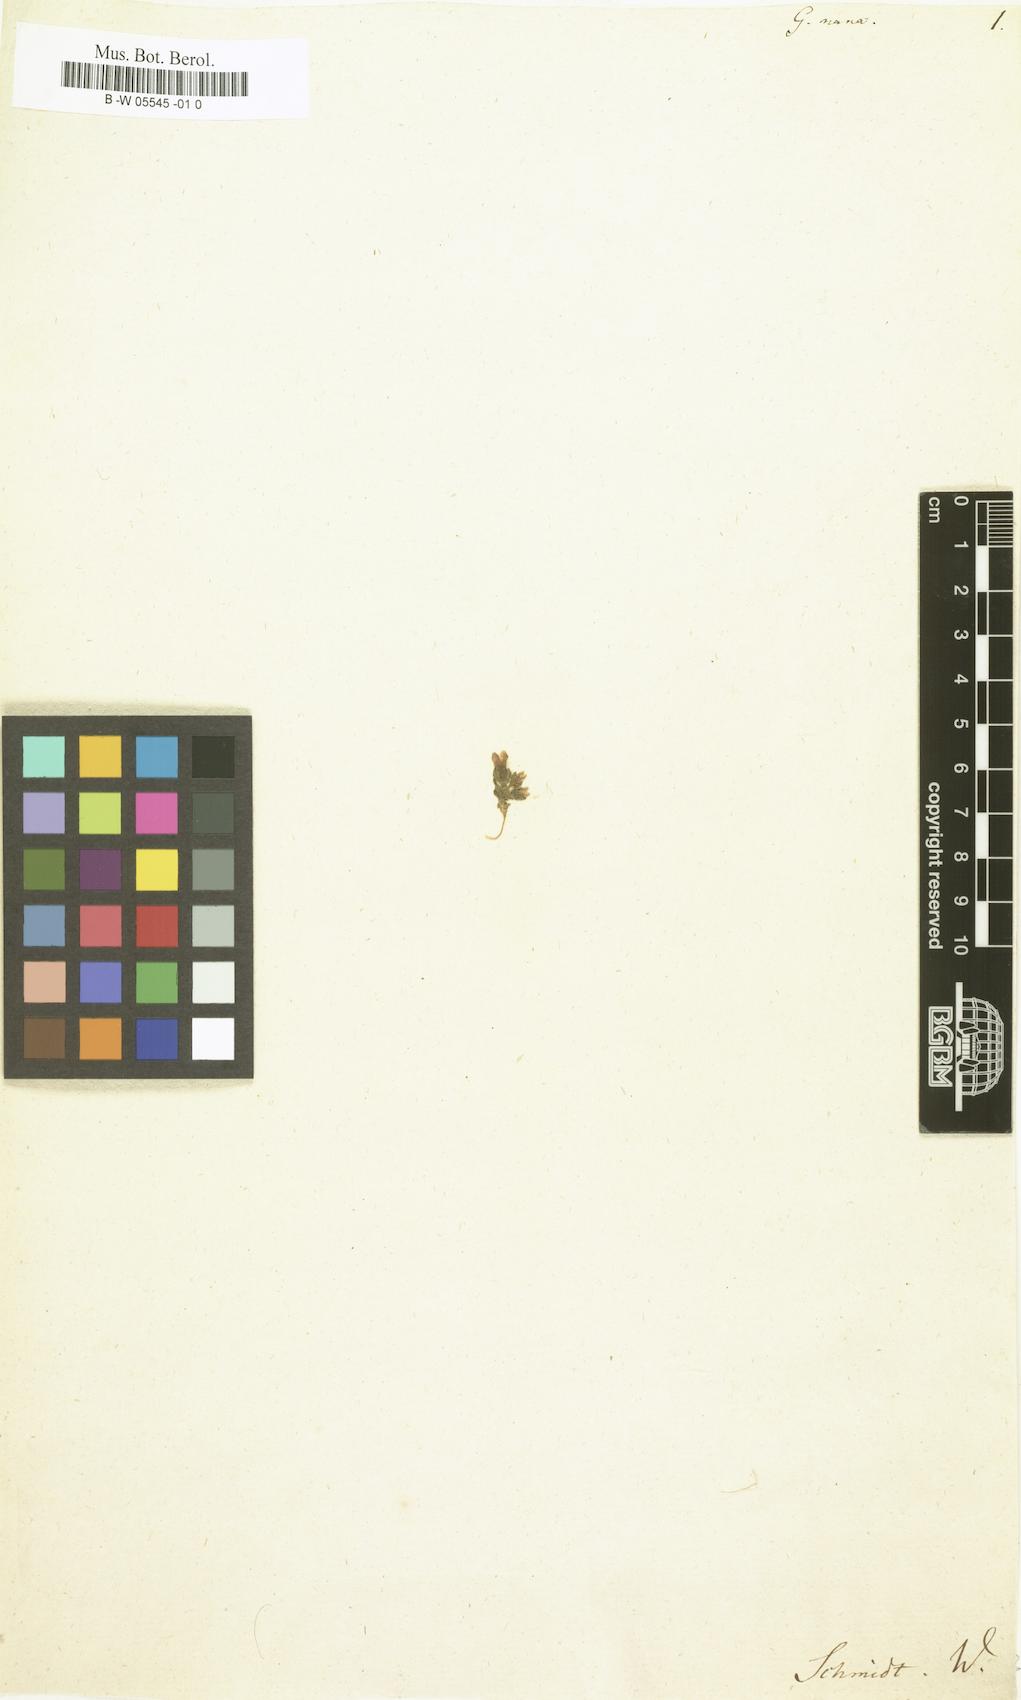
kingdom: Plantae
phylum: Tracheophyta
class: Magnoliopsida
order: Gentianales
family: Gentianaceae
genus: Comastoma
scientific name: Comastoma nanum
